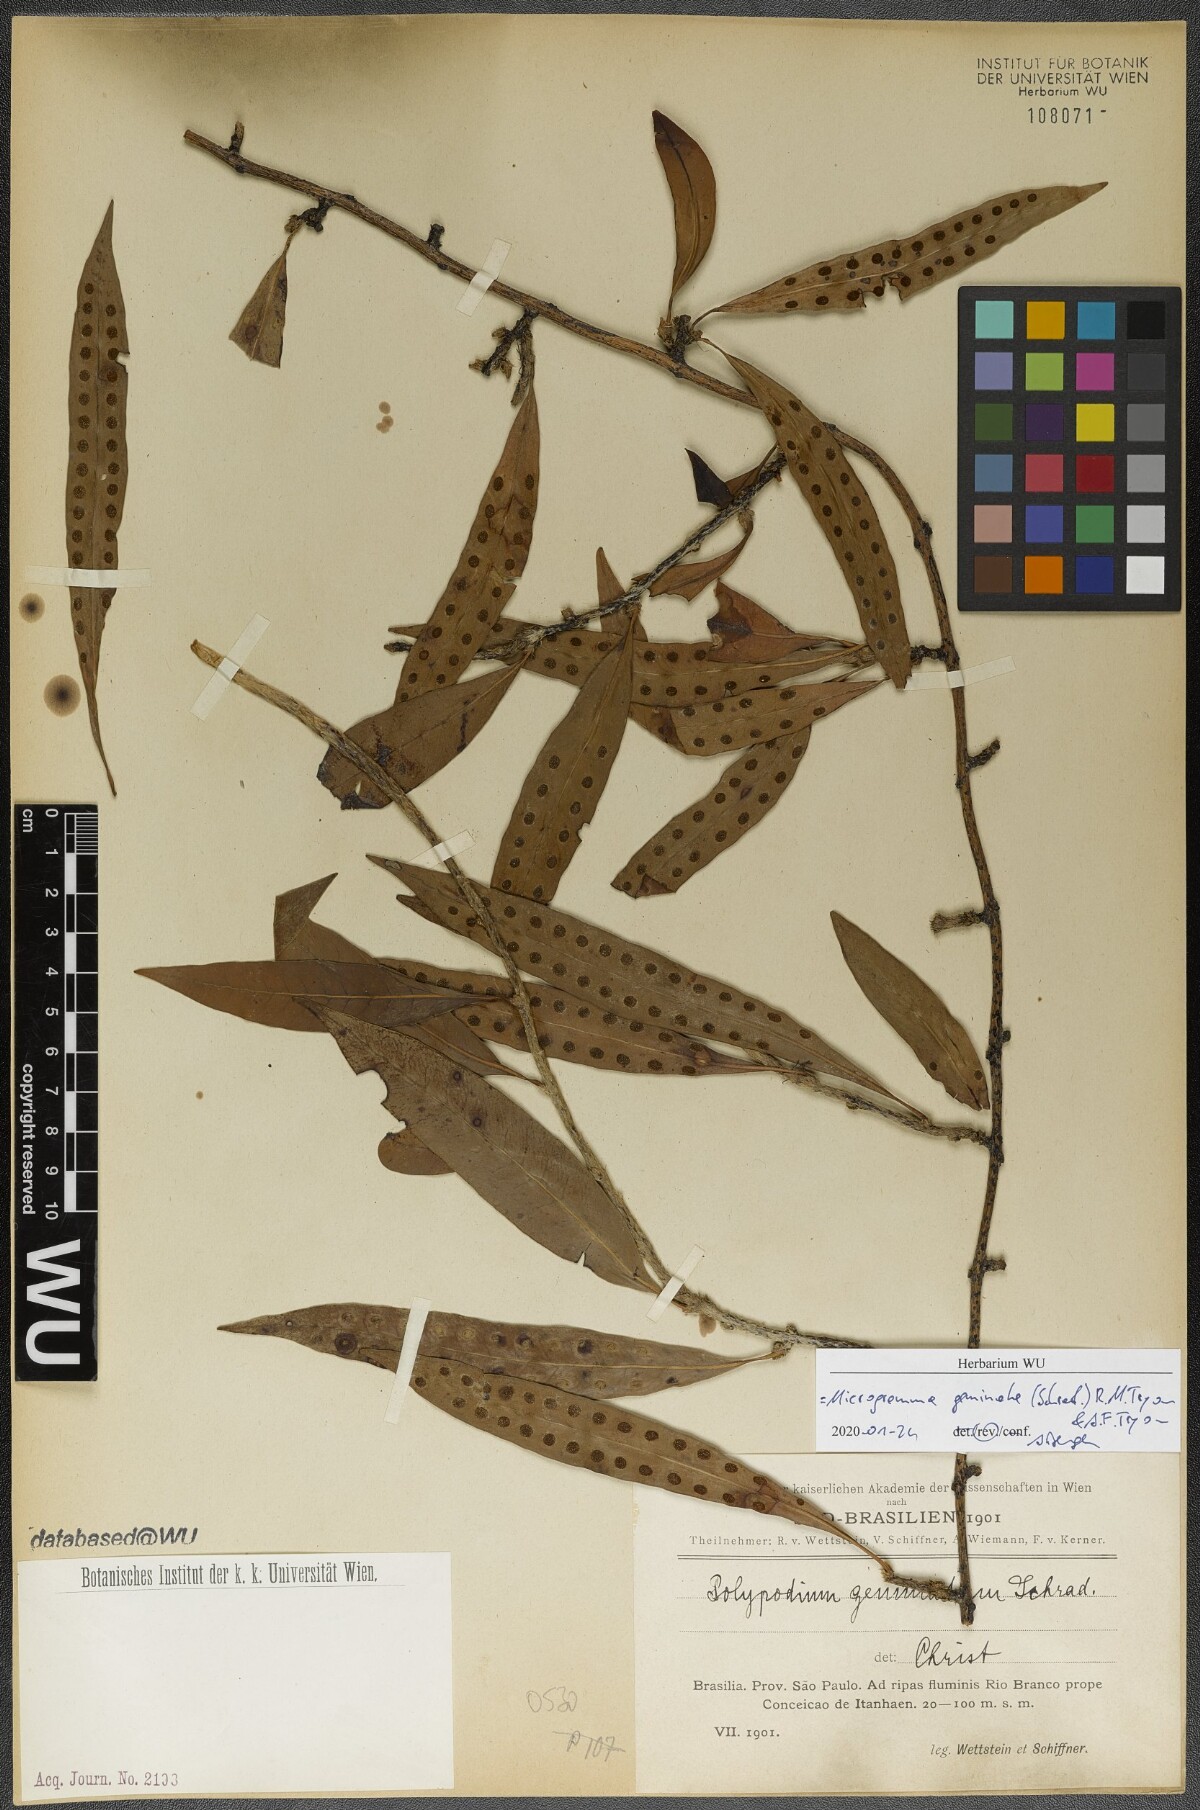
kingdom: Plantae
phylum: Tracheophyta
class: Polypodiopsida
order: Polypodiales
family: Polypodiaceae
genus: Microgramma
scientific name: Microgramma geminata
